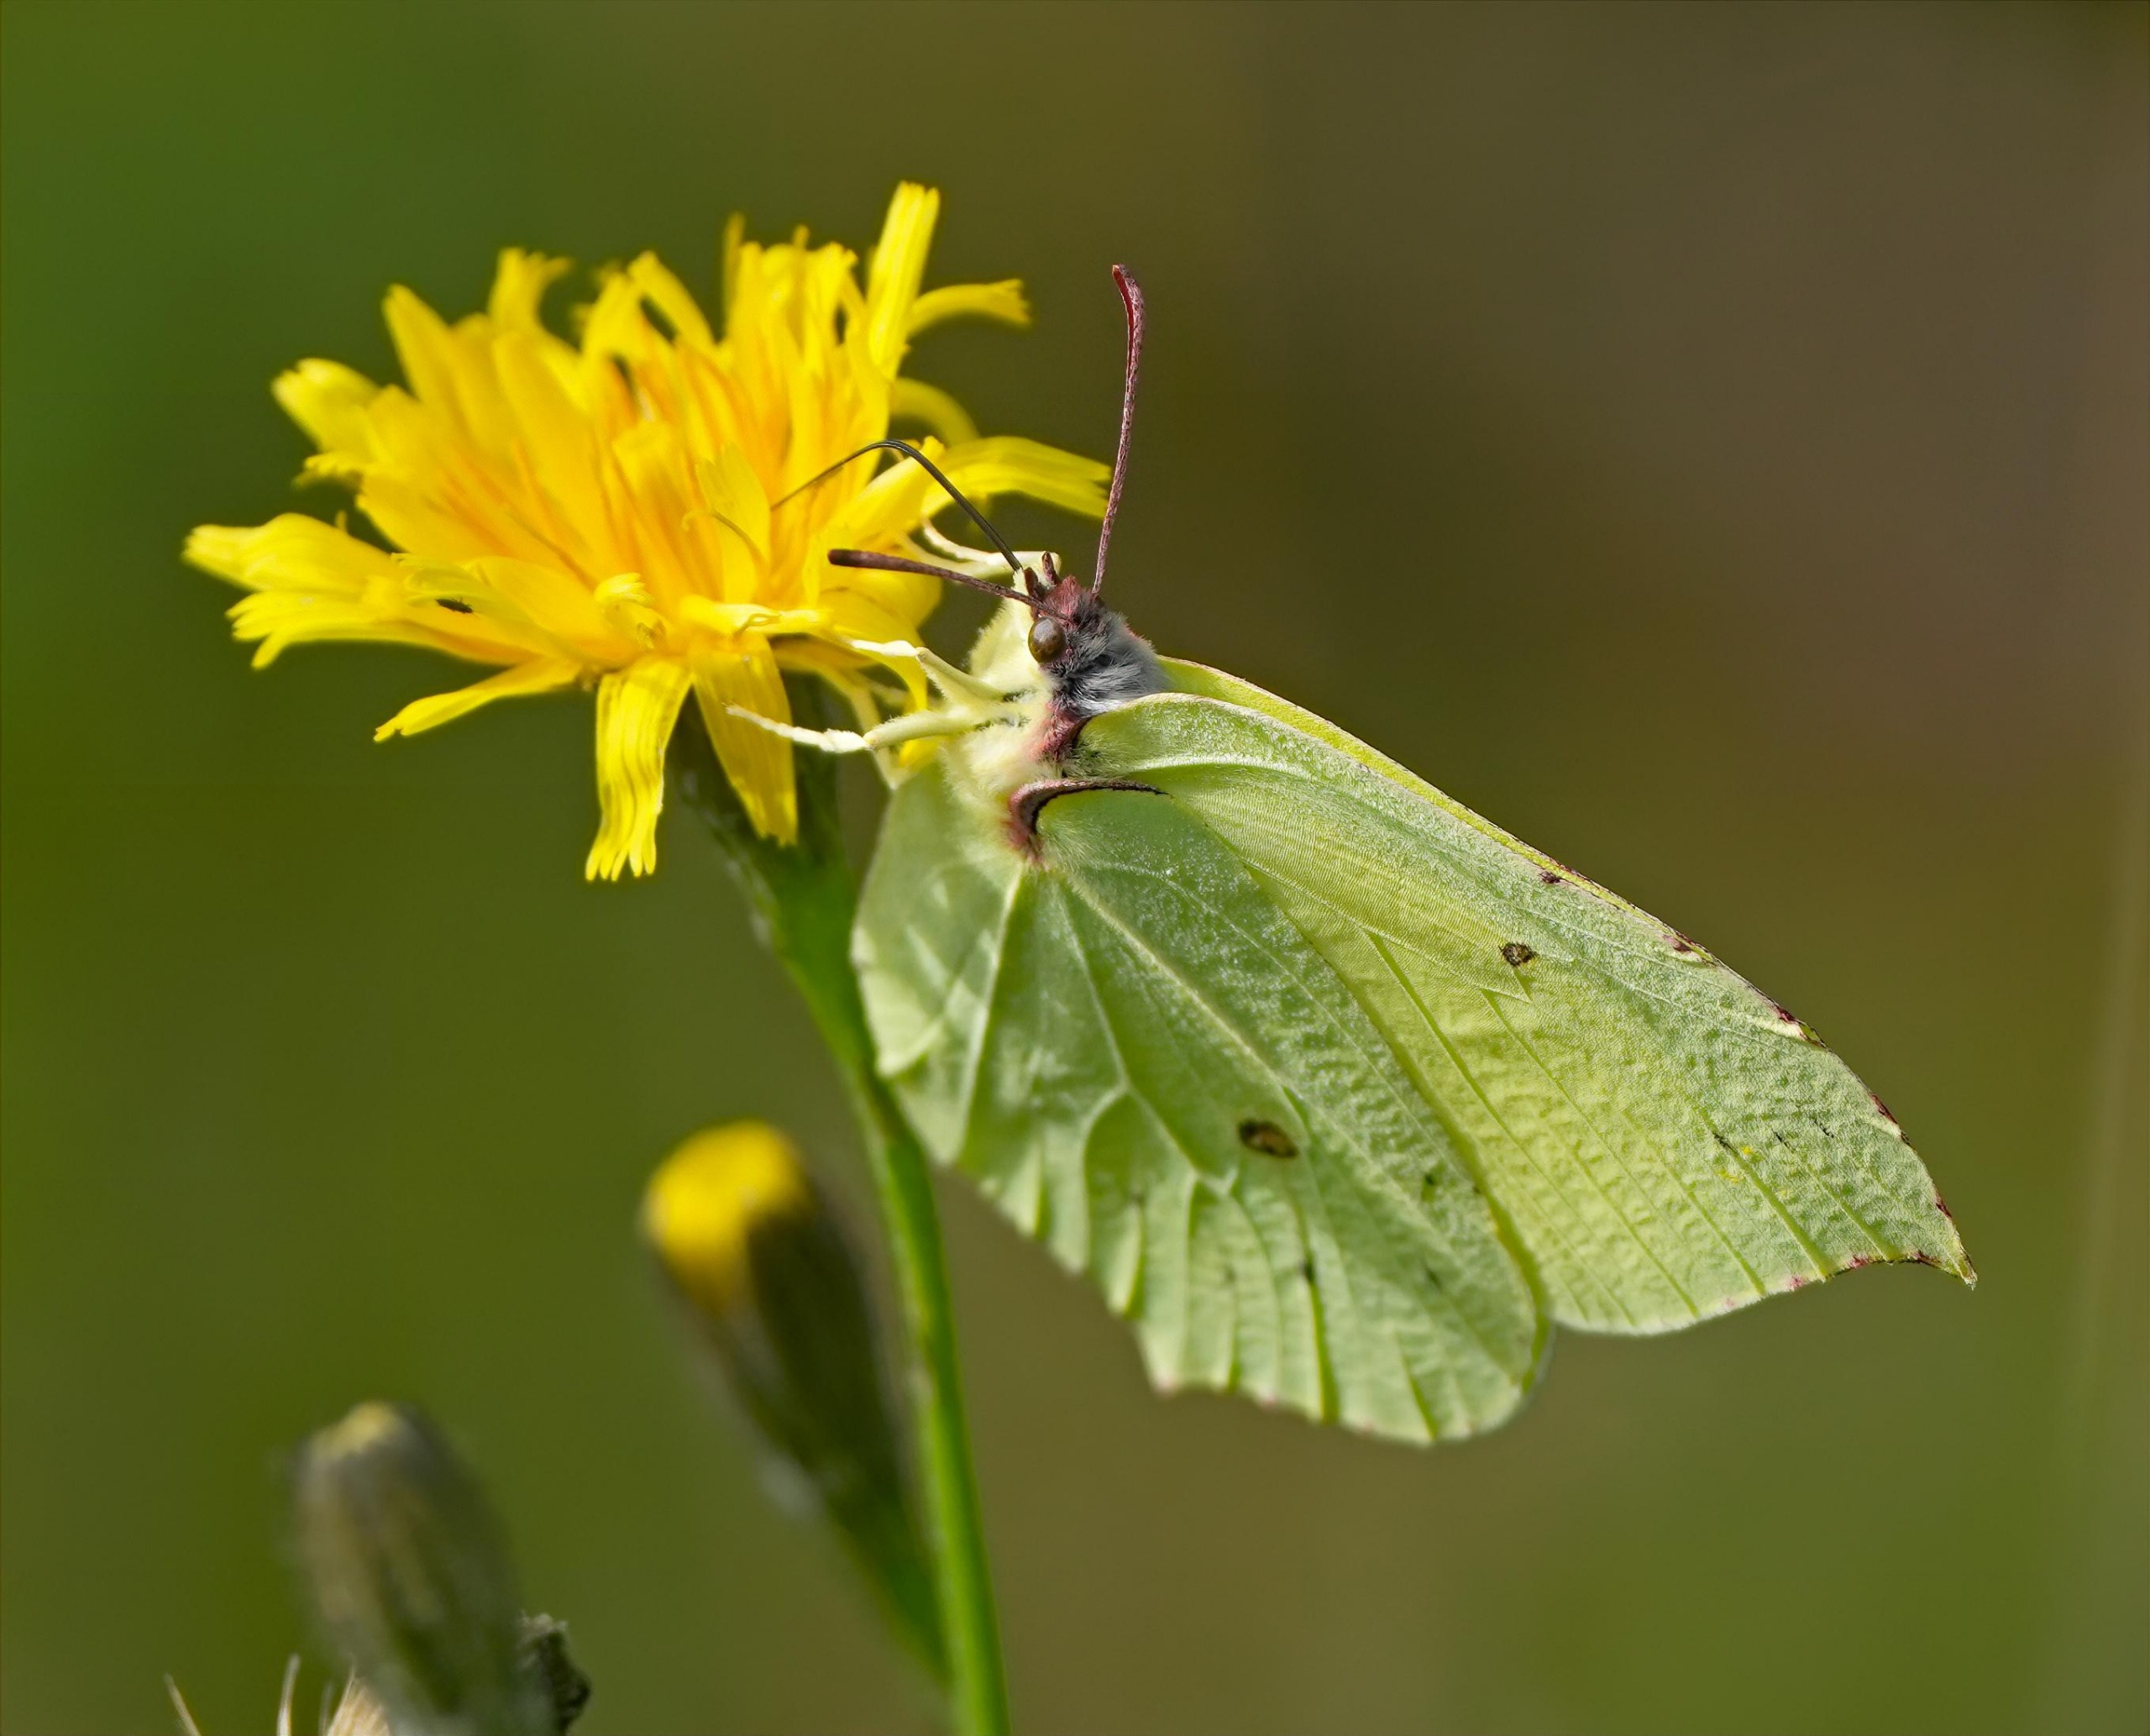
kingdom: Animalia
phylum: Arthropoda
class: Insecta
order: Lepidoptera
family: Pieridae
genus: Gonepteryx
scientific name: Gonepteryx rhamni
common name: Citronsommerfugl
